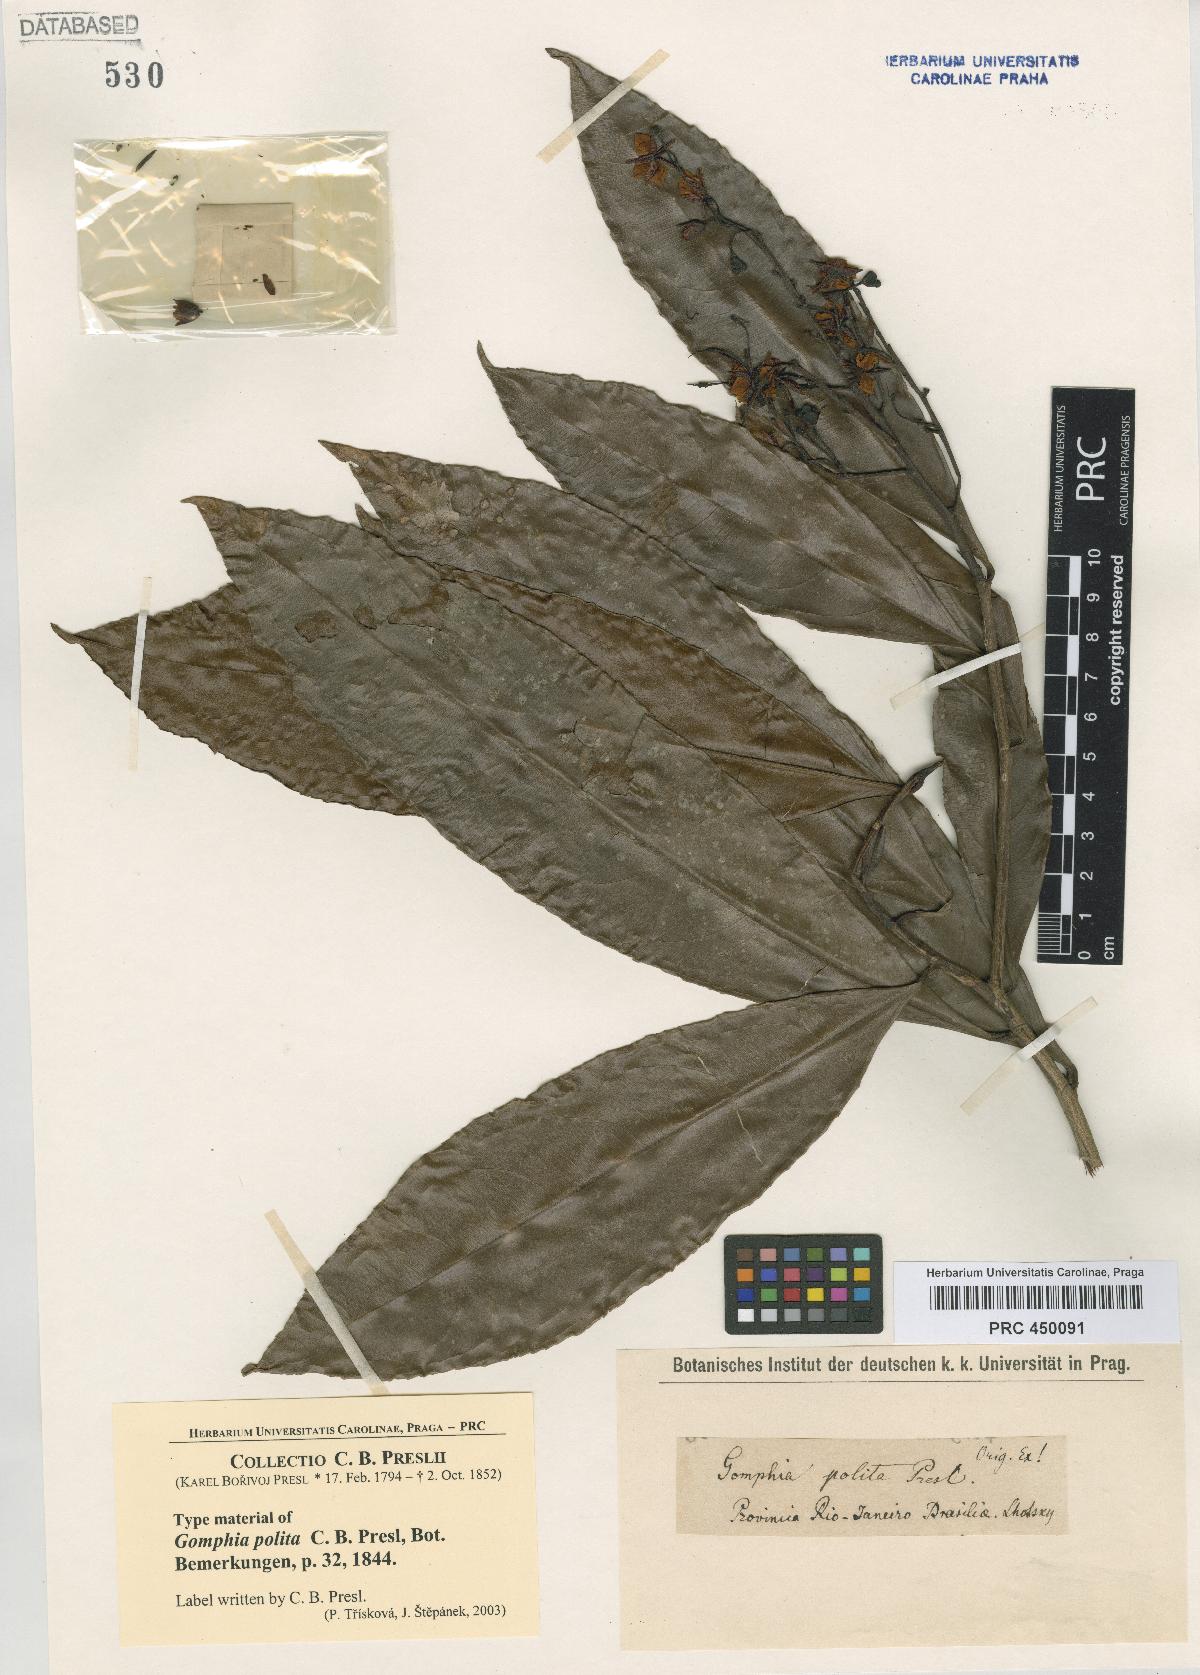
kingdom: Plantae
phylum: Tracheophyta
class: Magnoliopsida
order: Malpighiales
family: Ochnaceae
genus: Ouratea
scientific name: Ouratea polita
